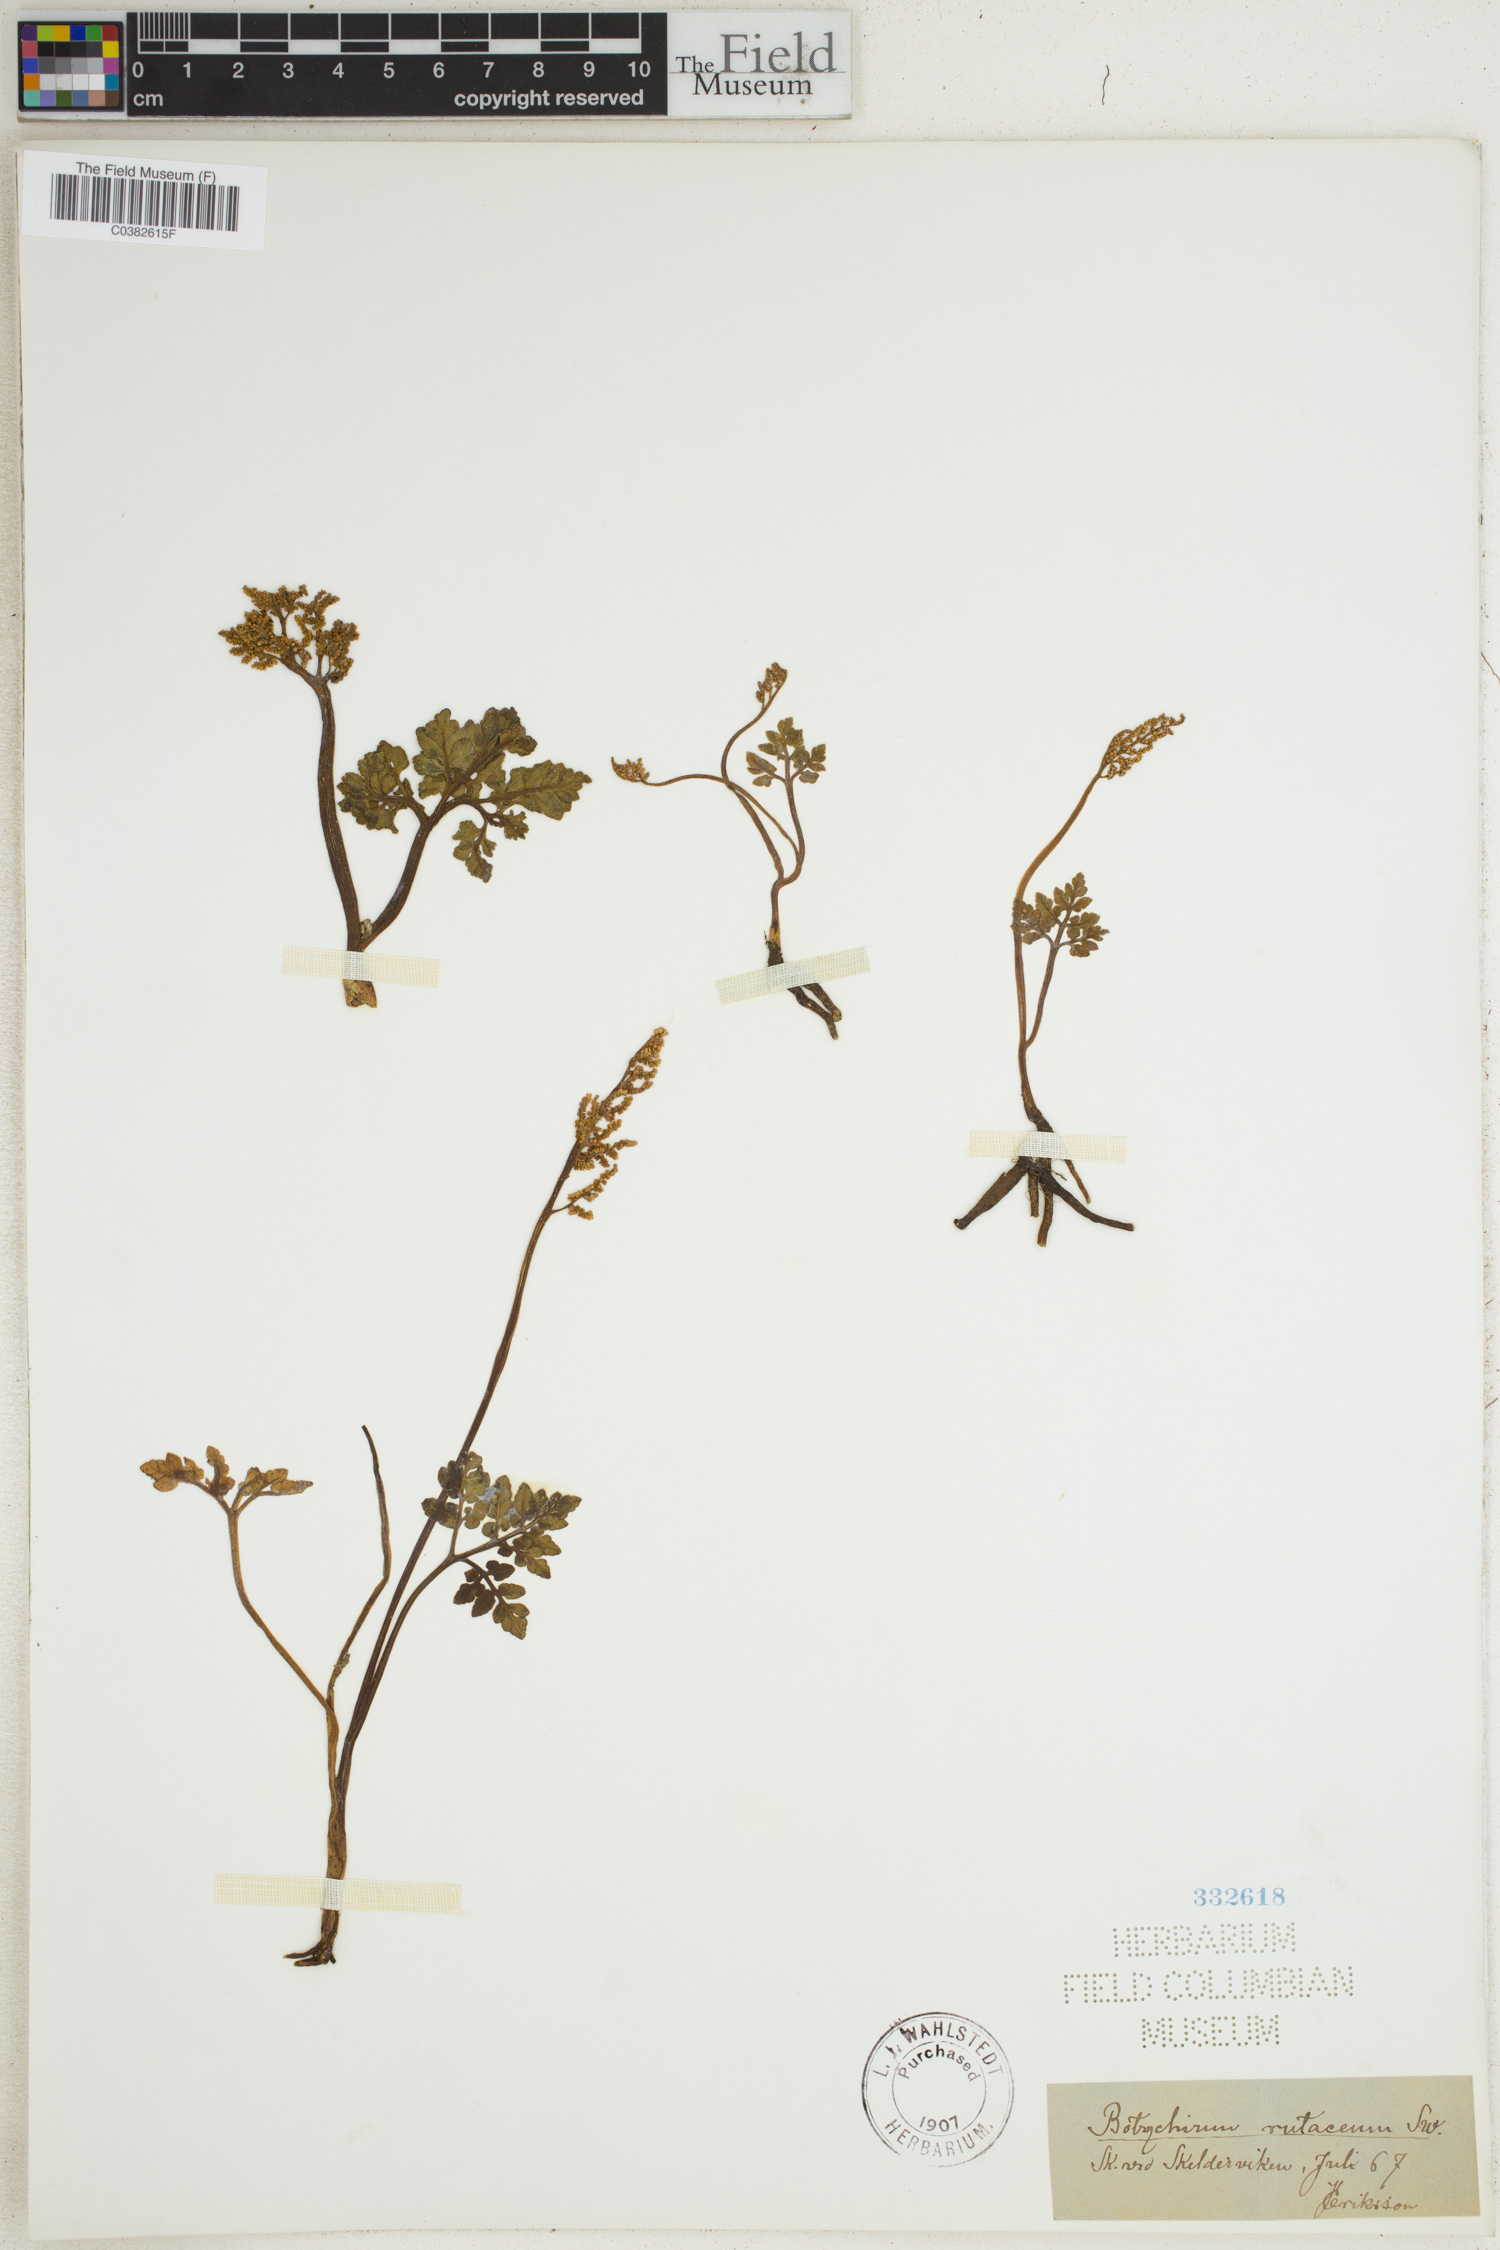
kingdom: Plantae
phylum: Tracheophyta
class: Polypodiopsida
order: Ophioglossales
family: Ophioglossaceae
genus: Botrychium
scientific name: Botrychium matricariifolium
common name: Branched moonwort
